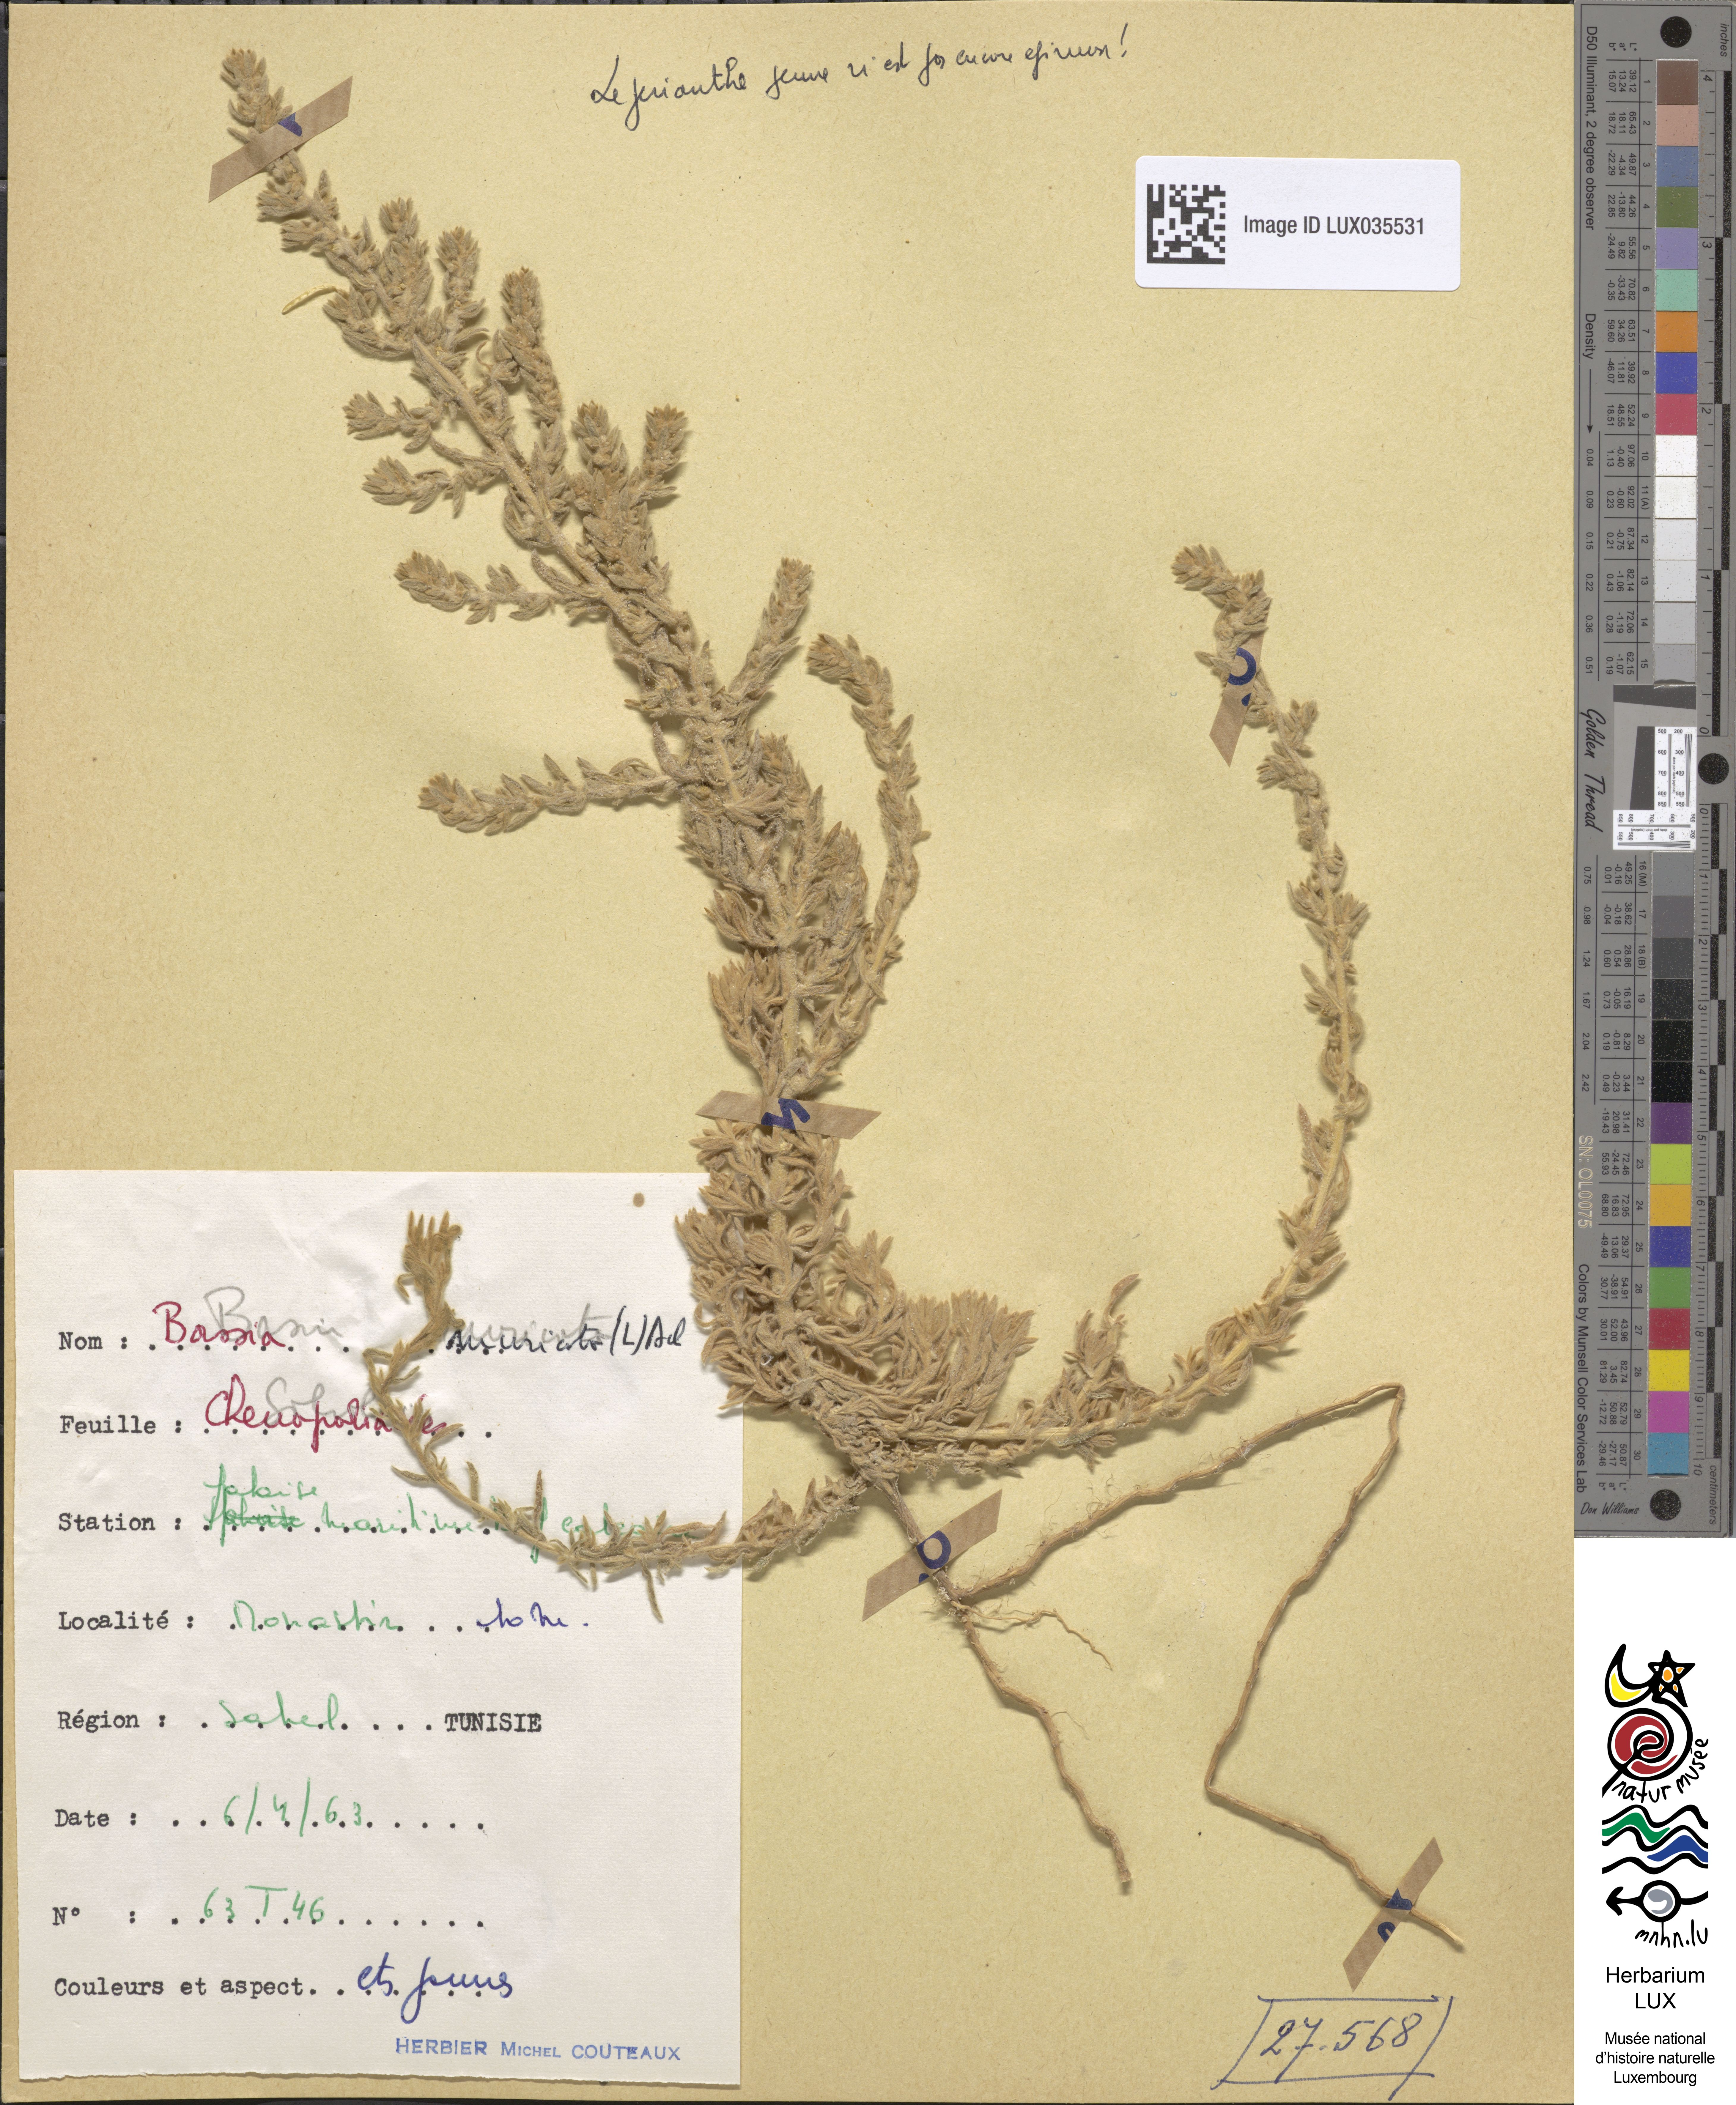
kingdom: Plantae
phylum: Tracheophyta
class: Magnoliopsida
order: Caryophyllales
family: Amaranthaceae
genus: Bassia
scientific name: Bassia muricata
